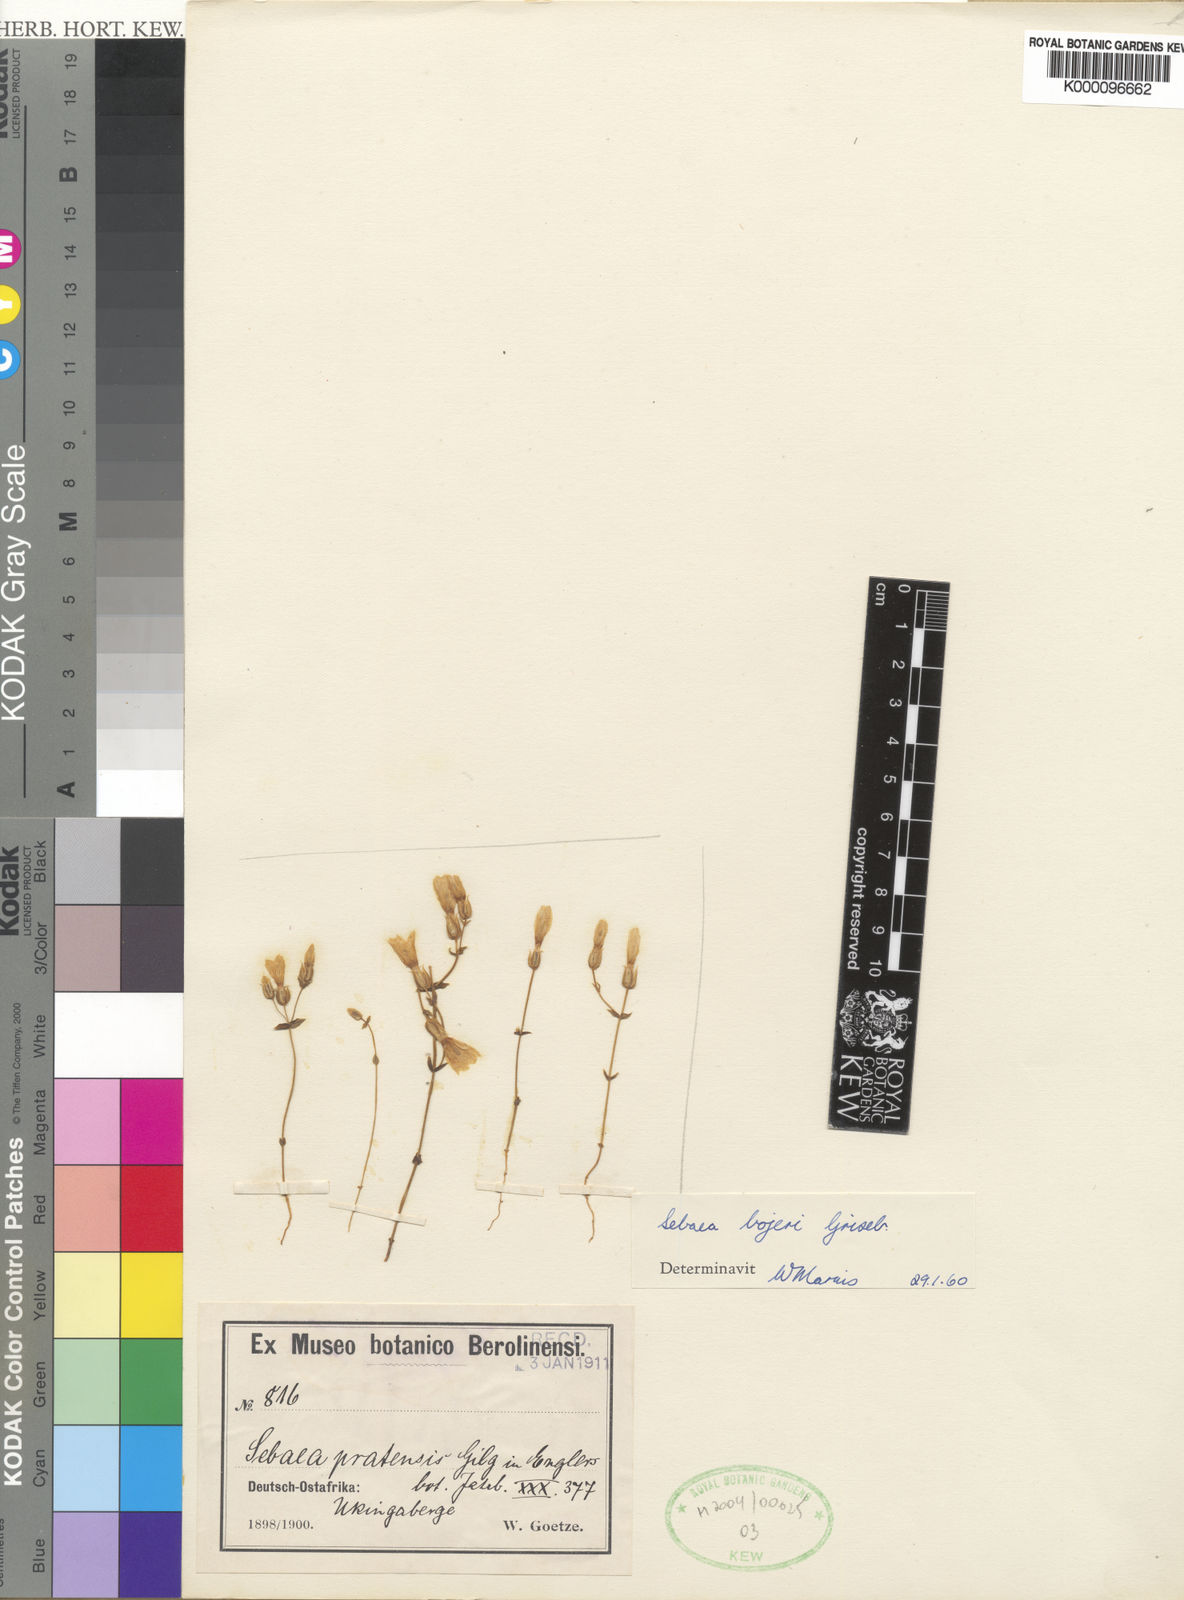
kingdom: Plantae
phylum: Tracheophyta
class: Magnoliopsida
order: Gentianales
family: Gentianaceae
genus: Sebaea
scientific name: Sebaea bojeri
